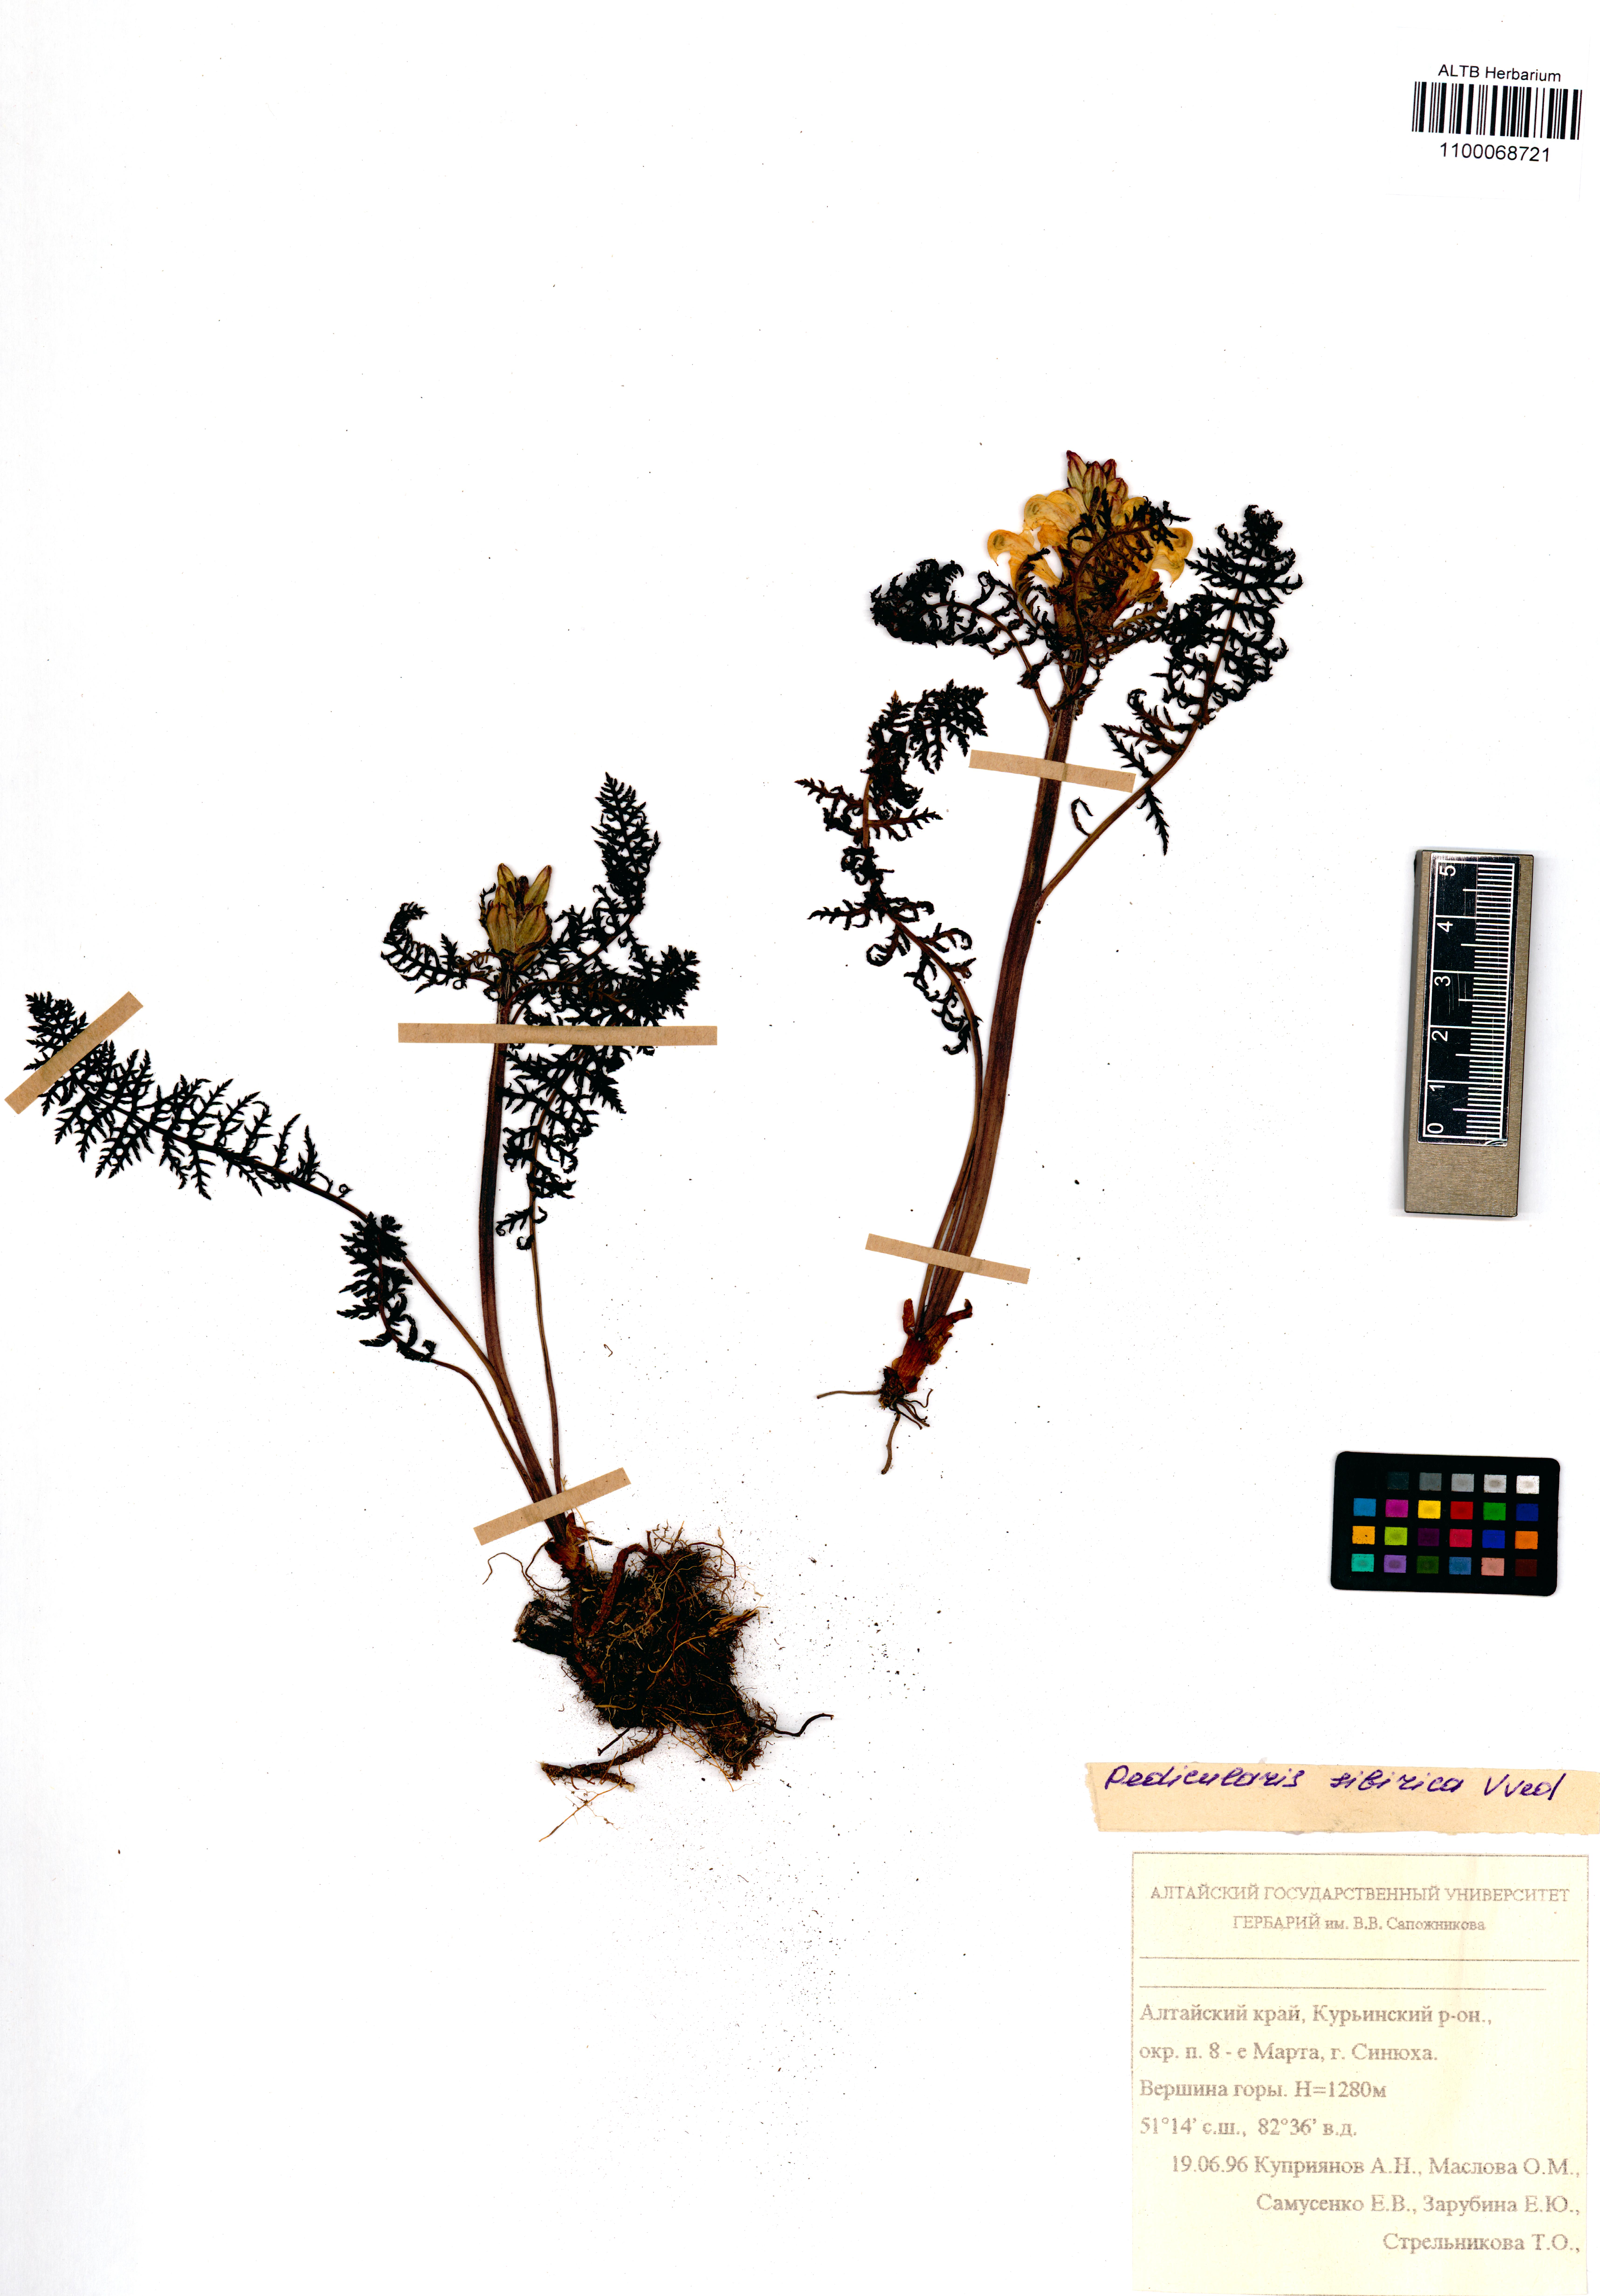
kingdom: Plantae
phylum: Tracheophyta
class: Magnoliopsida
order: Lamiales
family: Orobanchaceae
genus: Pedicularis
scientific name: Pedicularis sibirica
